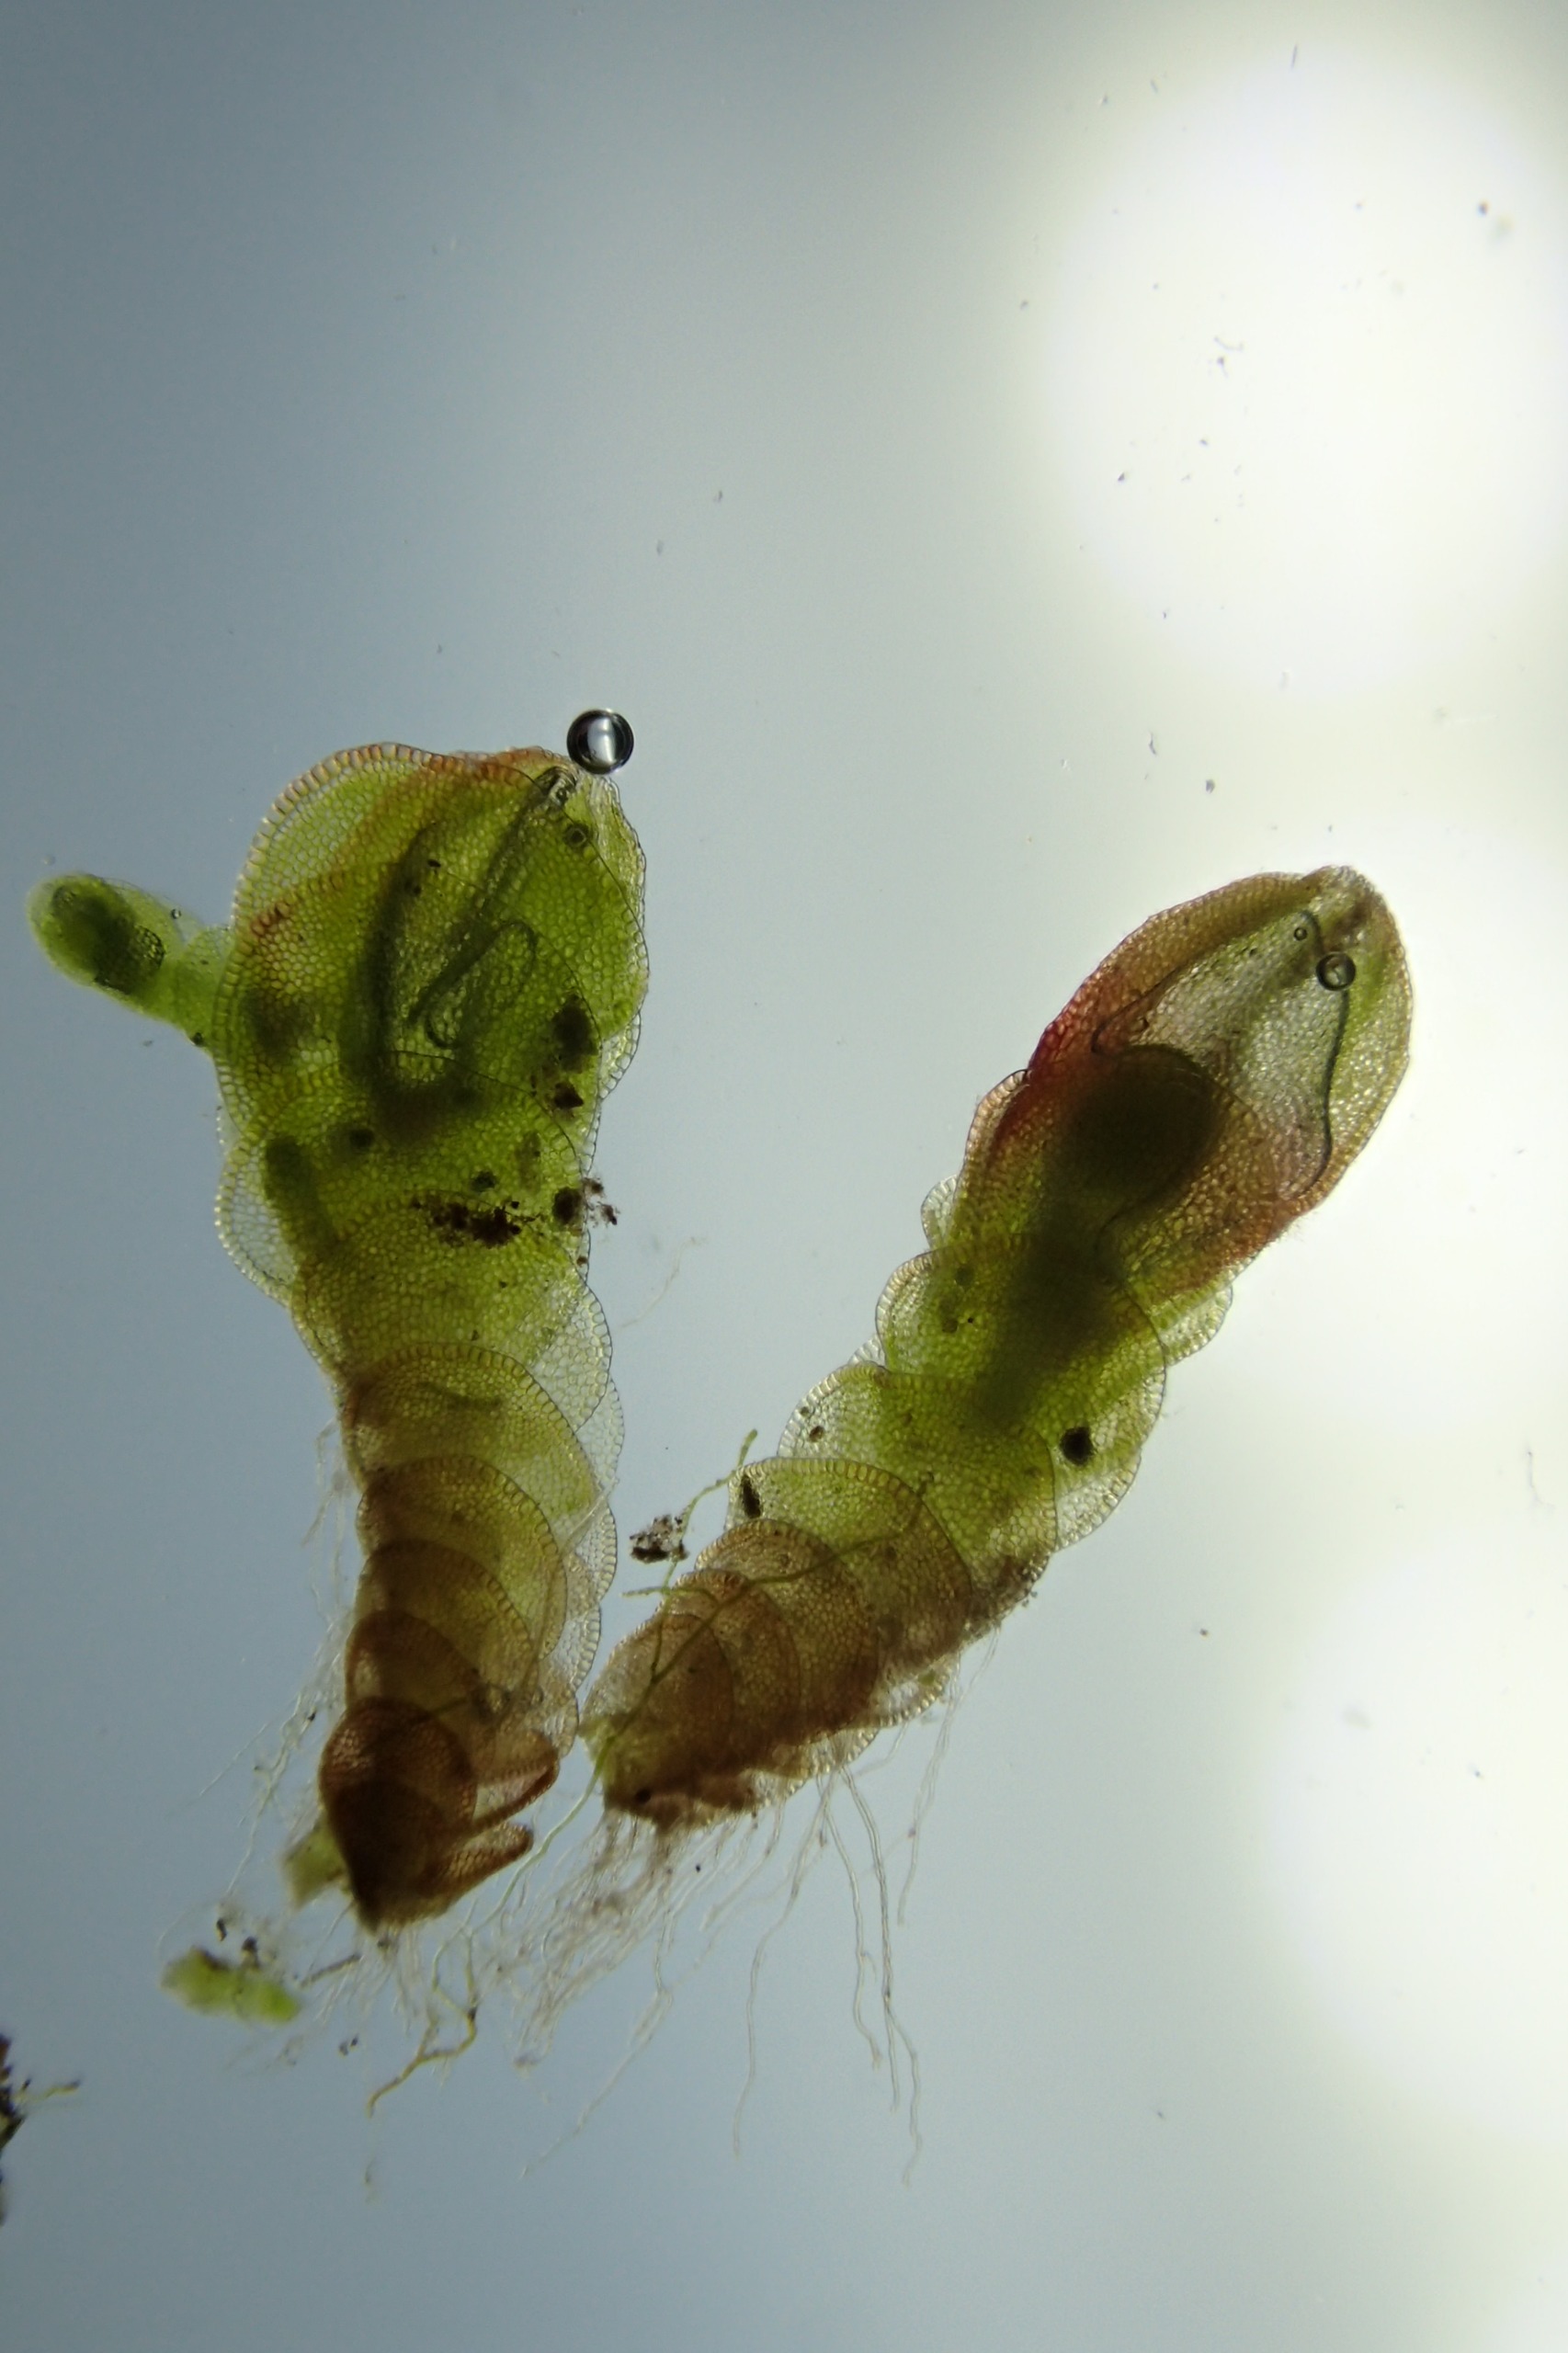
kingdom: Plantae
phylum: Marchantiophyta
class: Jungermanniopsida
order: Jungermanniales
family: Solenostomataceae
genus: Solenostoma
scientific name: Solenostoma gracillimum
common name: Vinget rørmund
